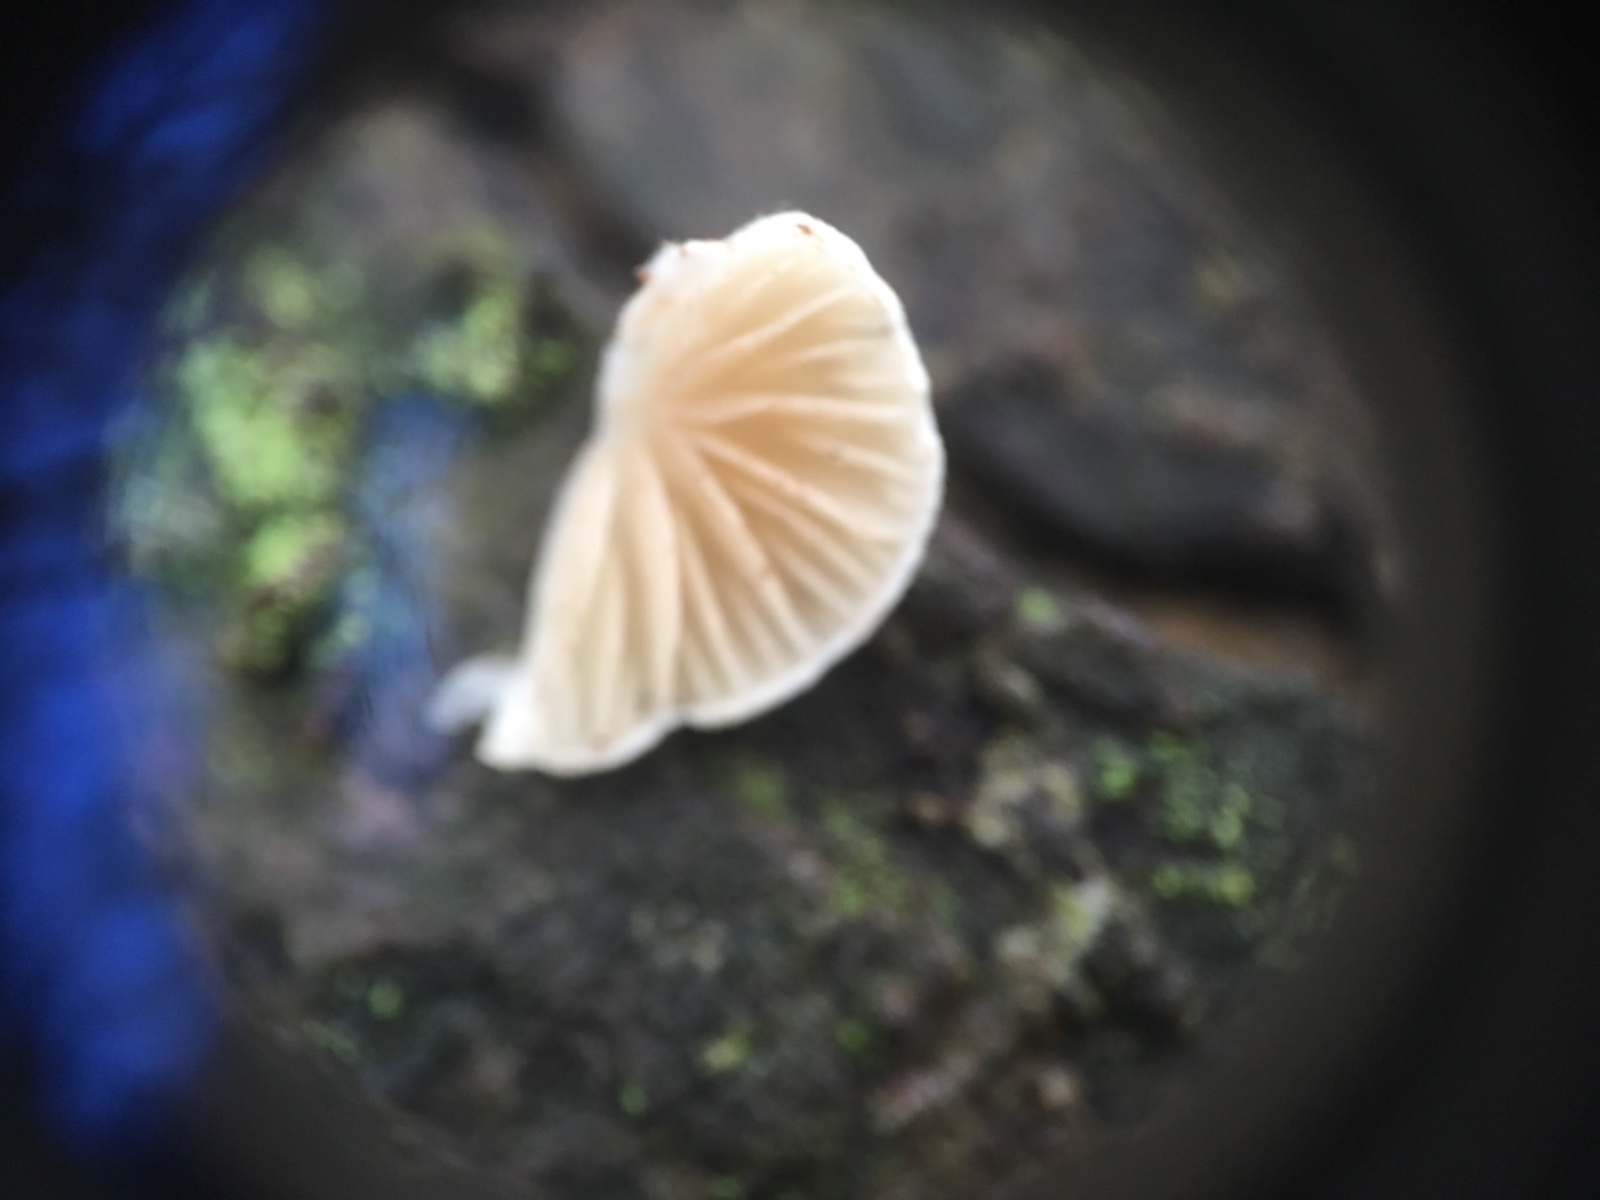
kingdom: Fungi
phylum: Basidiomycota
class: Agaricomycetes
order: Agaricales
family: Crepidotaceae
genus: Crepidotus
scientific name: Crepidotus
